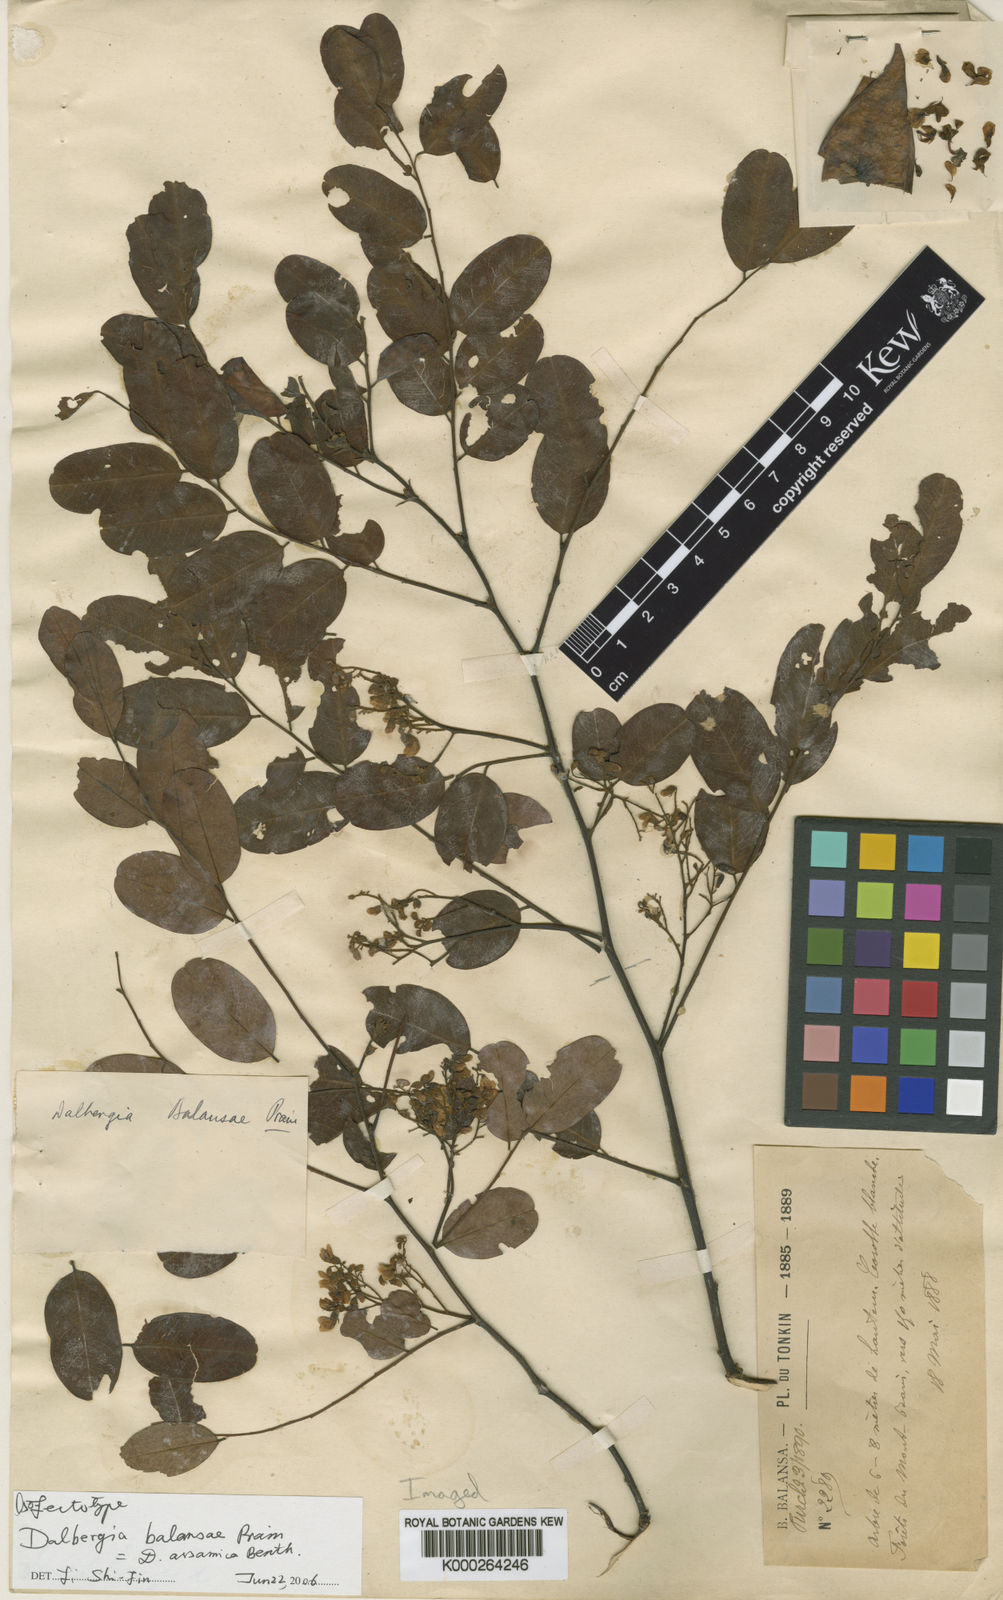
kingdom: Plantae
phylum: Tracheophyta
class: Magnoliopsida
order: Fabales
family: Fabaceae
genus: Dalbergia
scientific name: Dalbergia assamica
